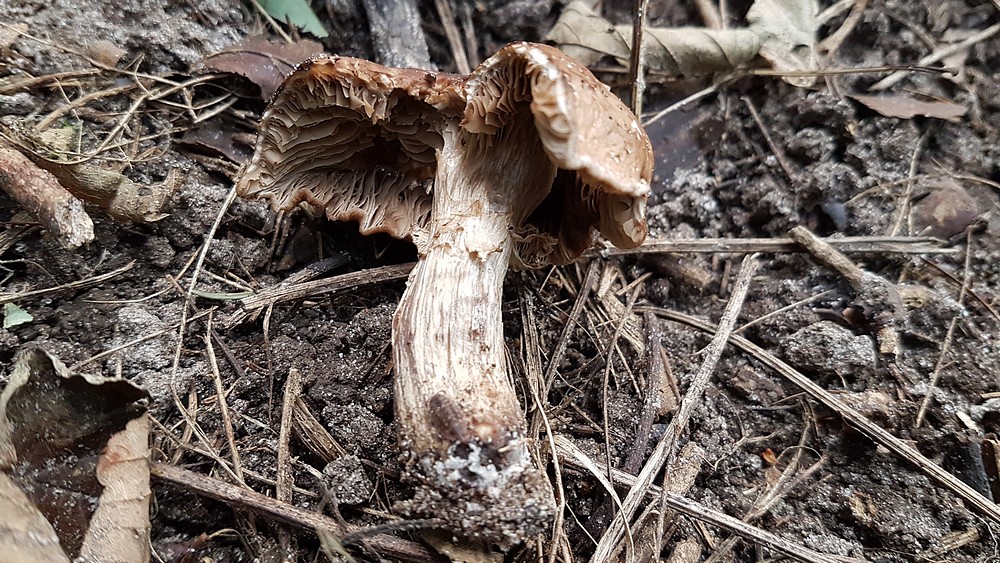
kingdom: Fungi
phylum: Basidiomycota
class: Agaricomycetes
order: Agaricales
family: Tubariaceae
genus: Cyclocybe
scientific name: Cyclocybe erebia
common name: mørk agerhat
